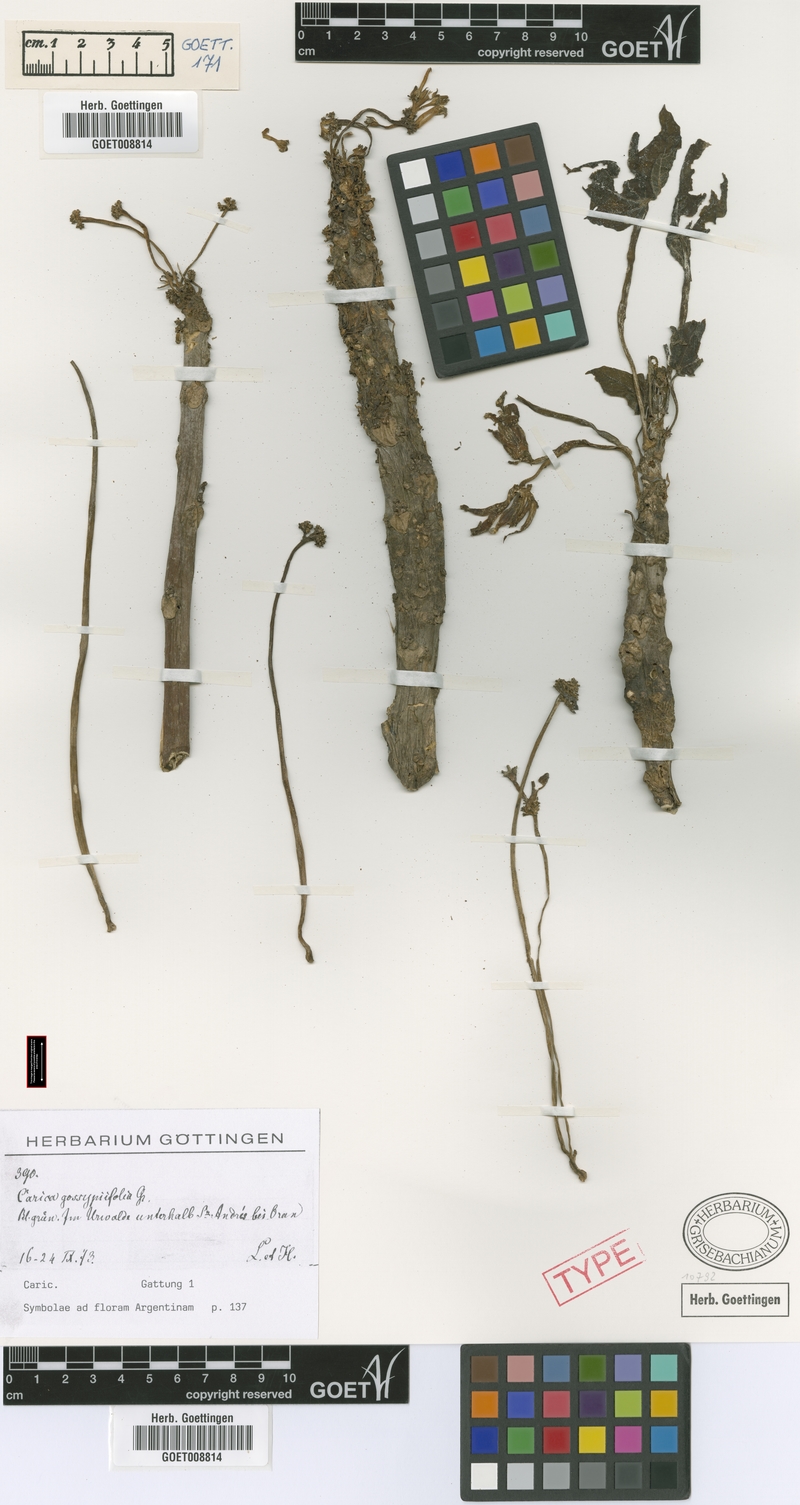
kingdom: Plantae
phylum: Tracheophyta
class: Magnoliopsida
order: Brassicales
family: Caricaceae
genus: Vasconcellea
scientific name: Vasconcellea glandulosa
